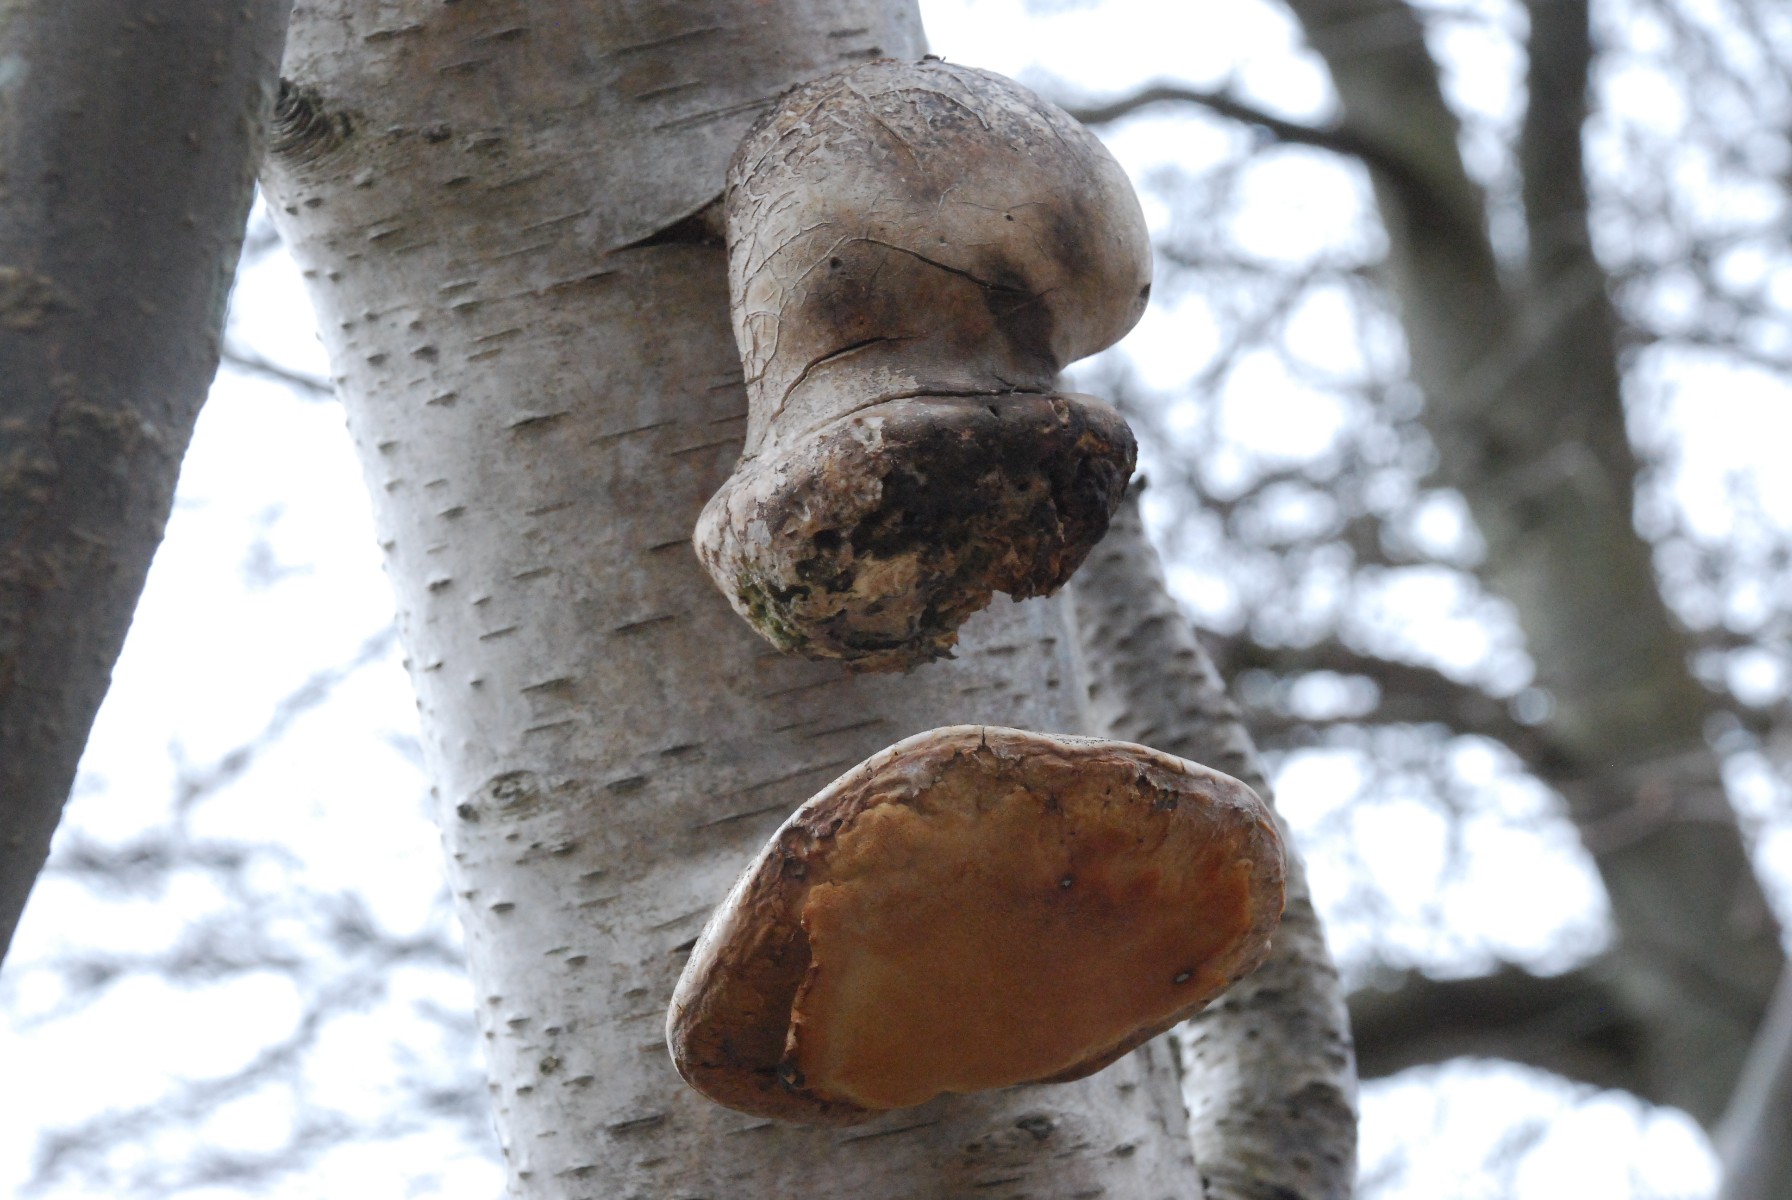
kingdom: Fungi
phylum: Basidiomycota
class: Agaricomycetes
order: Polyporales
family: Fomitopsidaceae
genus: Fomitopsis
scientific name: Fomitopsis betulina
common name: birkeporesvamp
